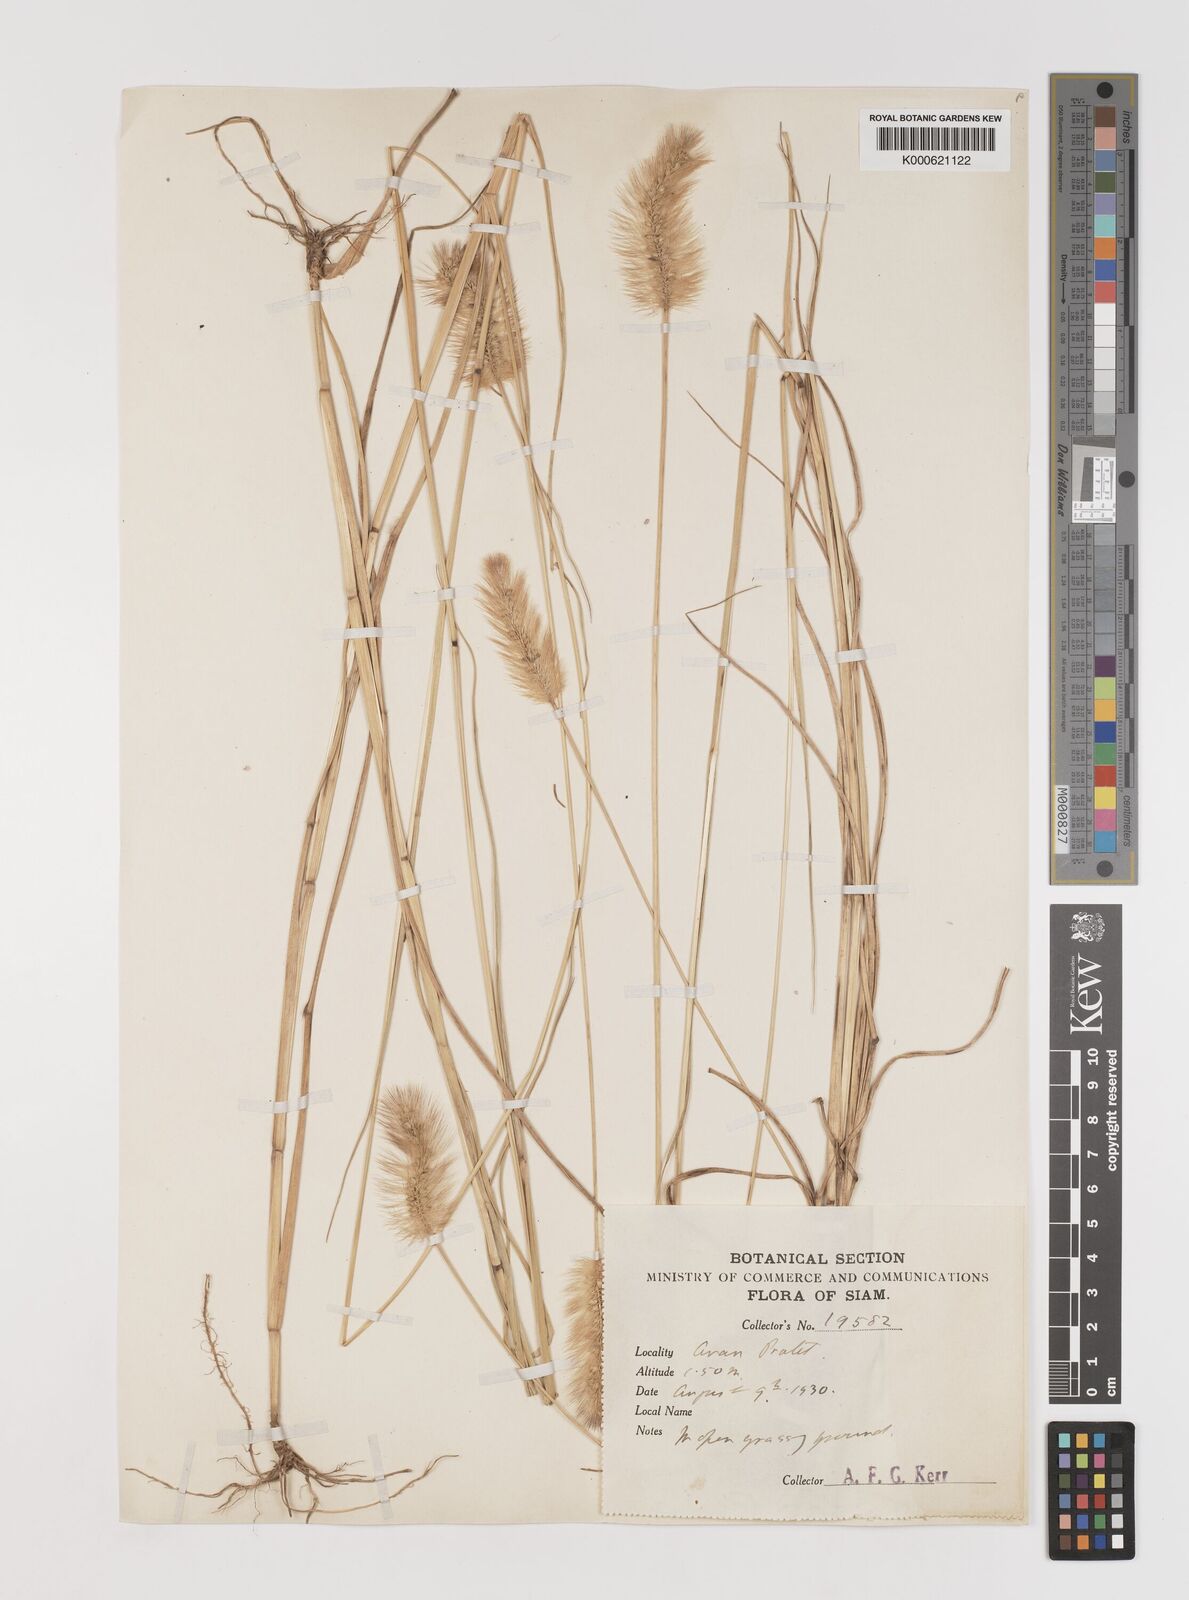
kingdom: Plantae
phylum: Tracheophyta
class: Liliopsida
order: Poales
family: Poaceae
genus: Setaria
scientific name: Setaria italica
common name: Foxtail bristle-grass
